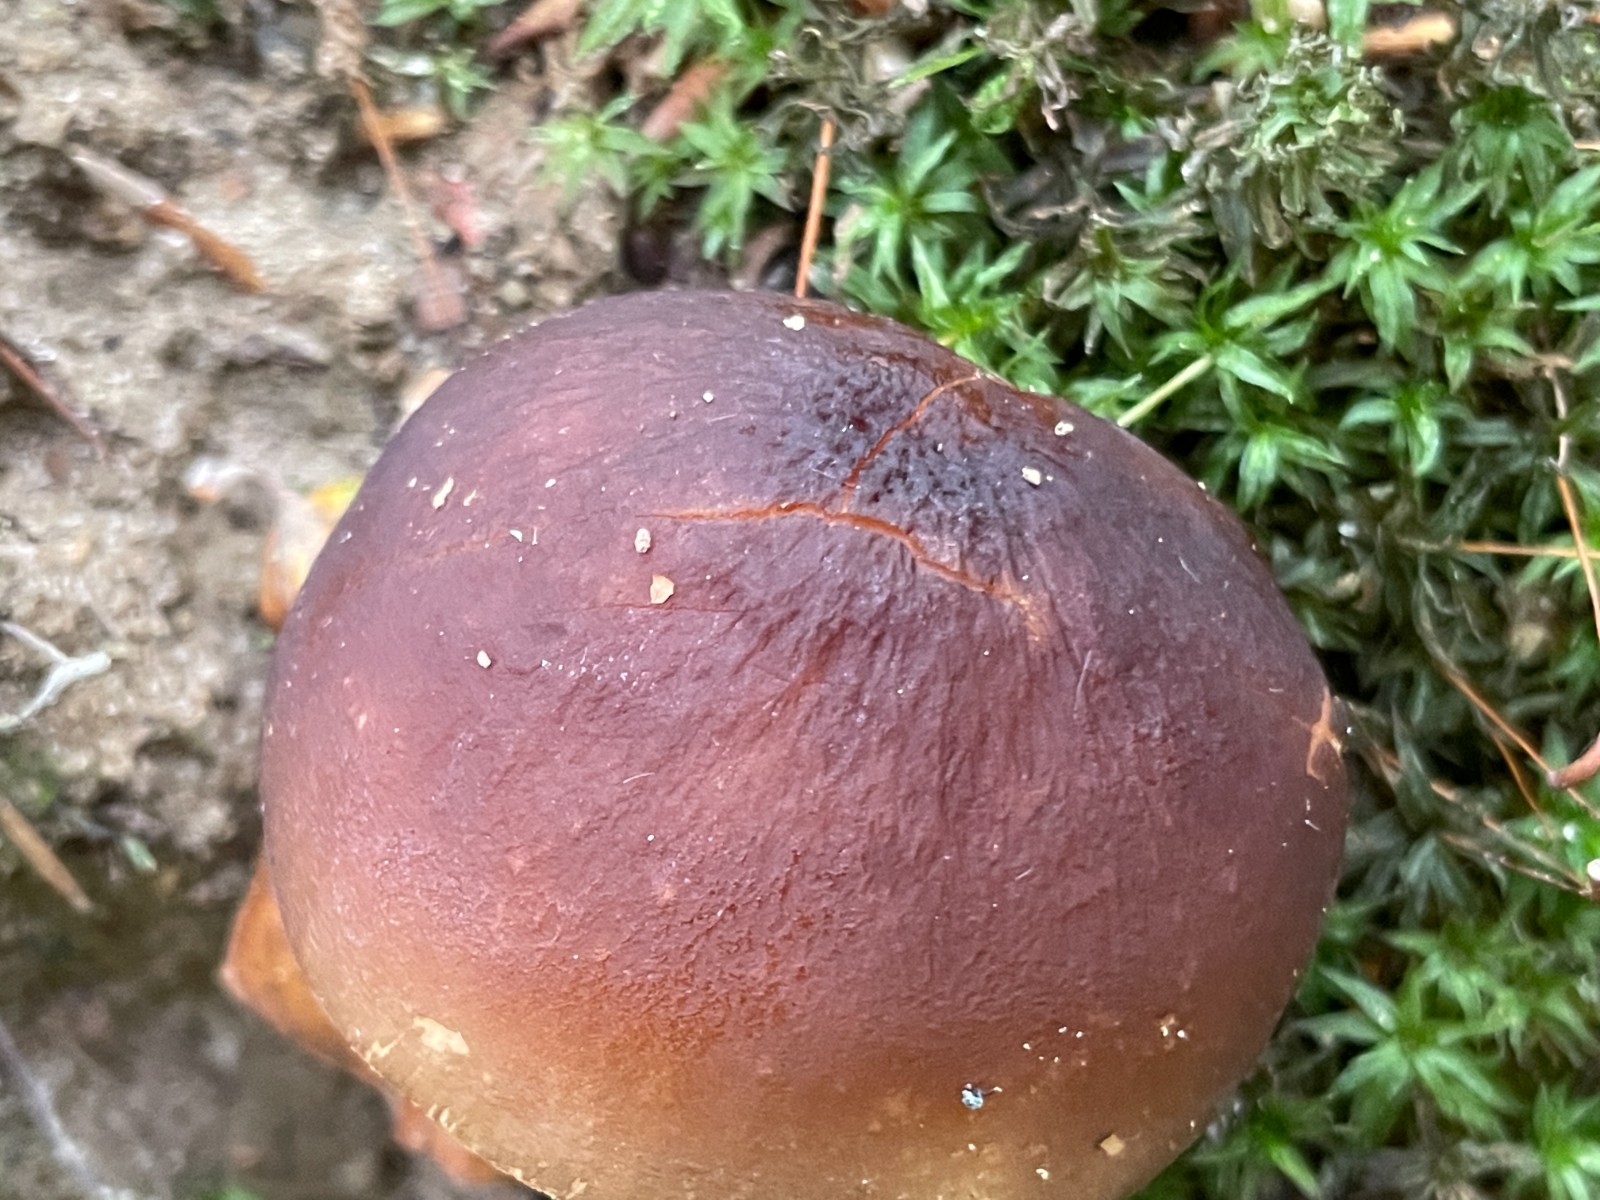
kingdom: Fungi
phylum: Basidiomycota
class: Agaricomycetes
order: Agaricales
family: Pluteaceae
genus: Pluteus
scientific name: Pluteus phlebophorus
